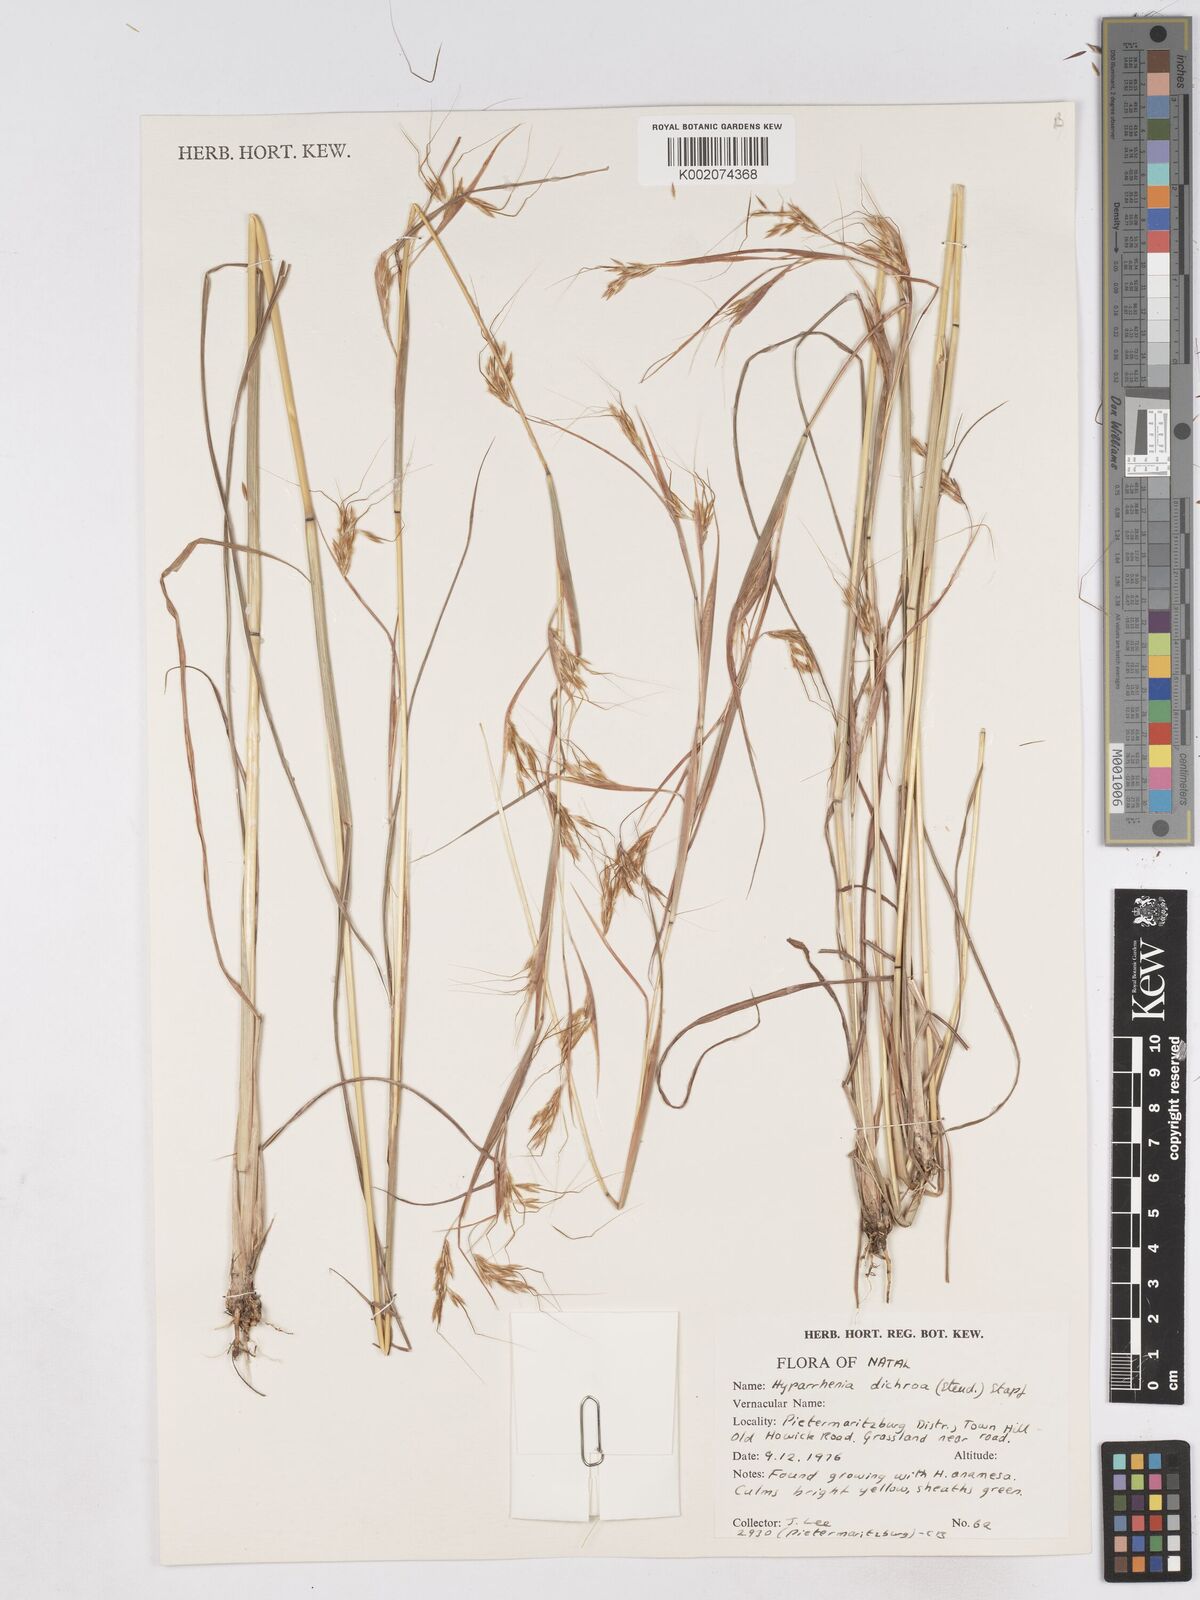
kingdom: Plantae
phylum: Tracheophyta
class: Liliopsida
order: Poales
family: Poaceae
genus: Hyparrhenia
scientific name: Hyparrhenia dichroa
